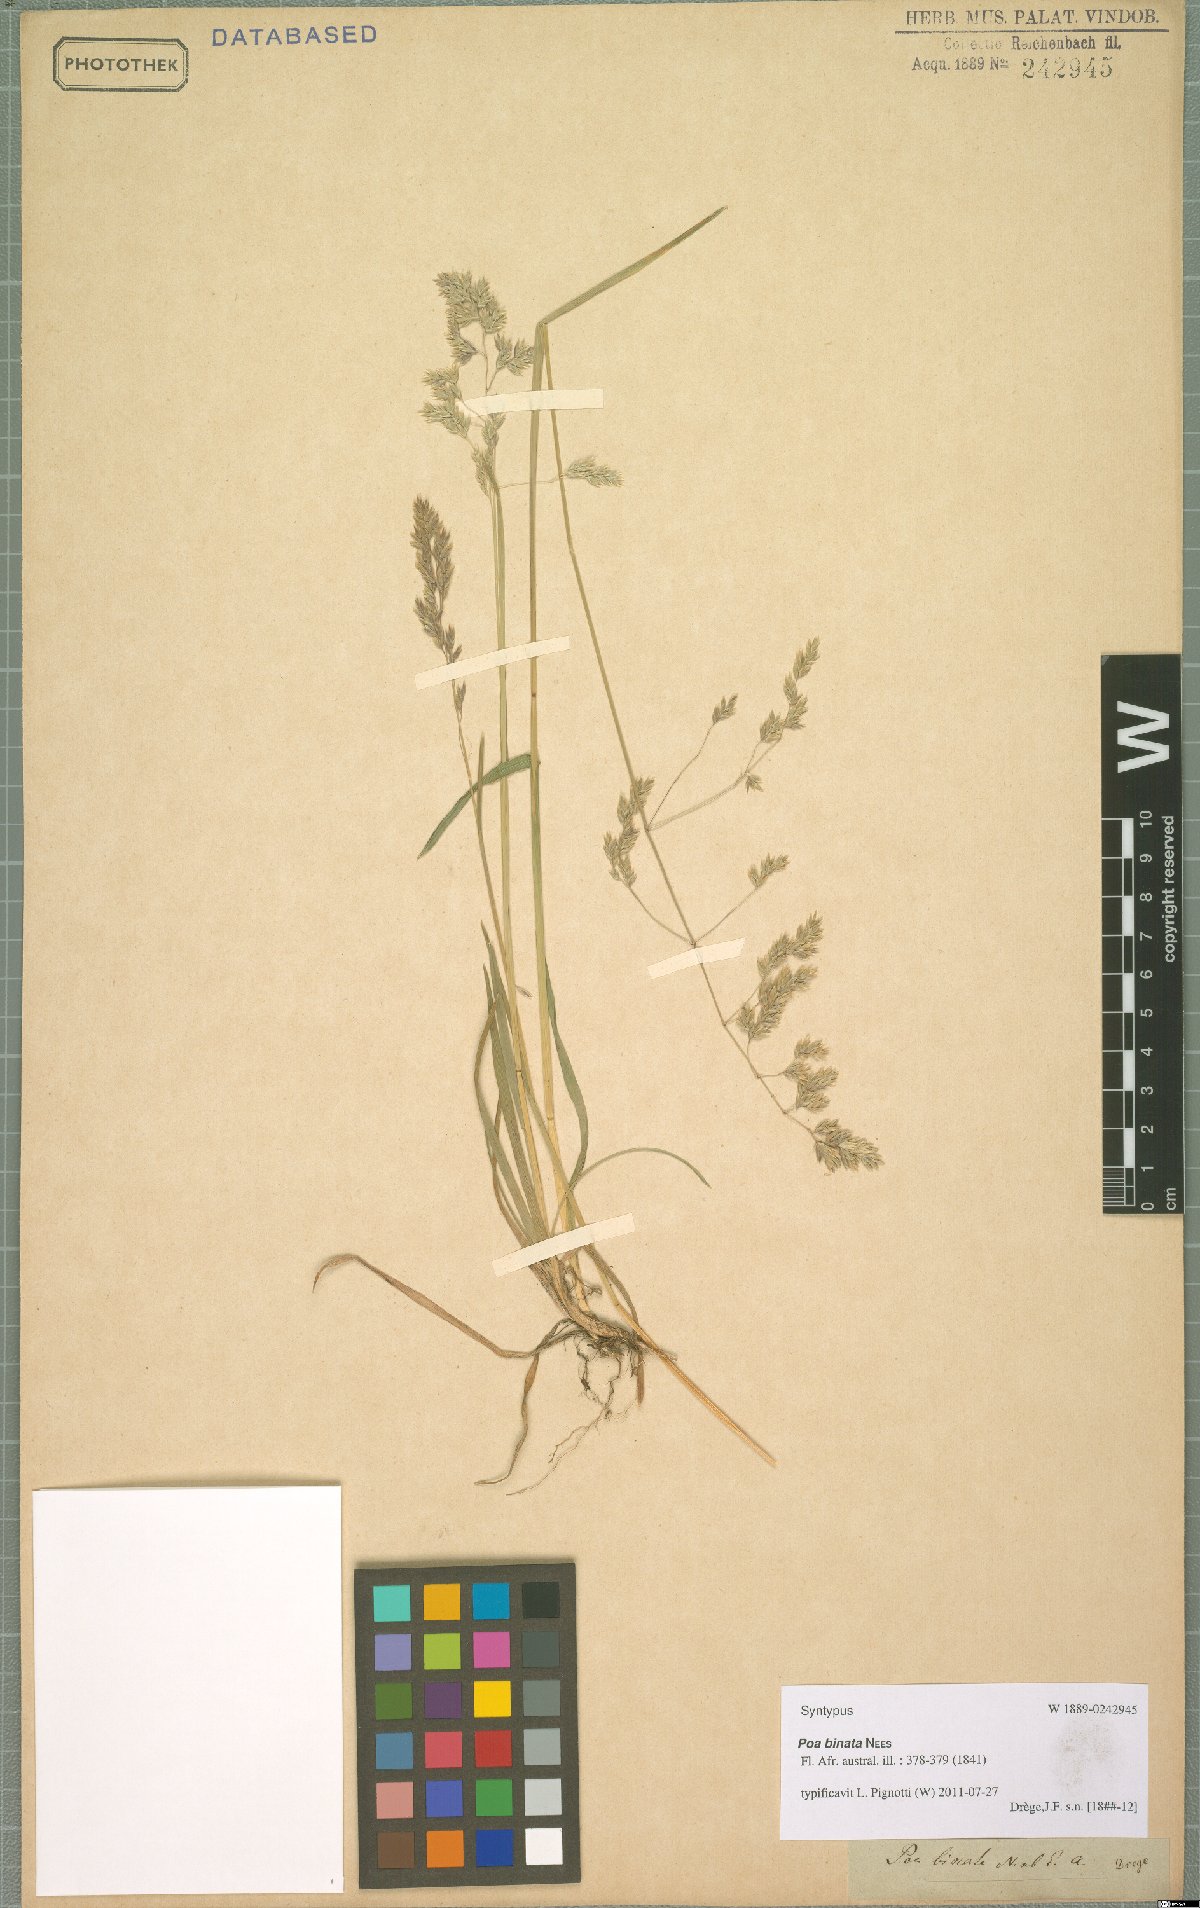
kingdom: Plantae
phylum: Tracheophyta
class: Liliopsida
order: Poales
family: Poaceae
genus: Poa
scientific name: Poa binata
